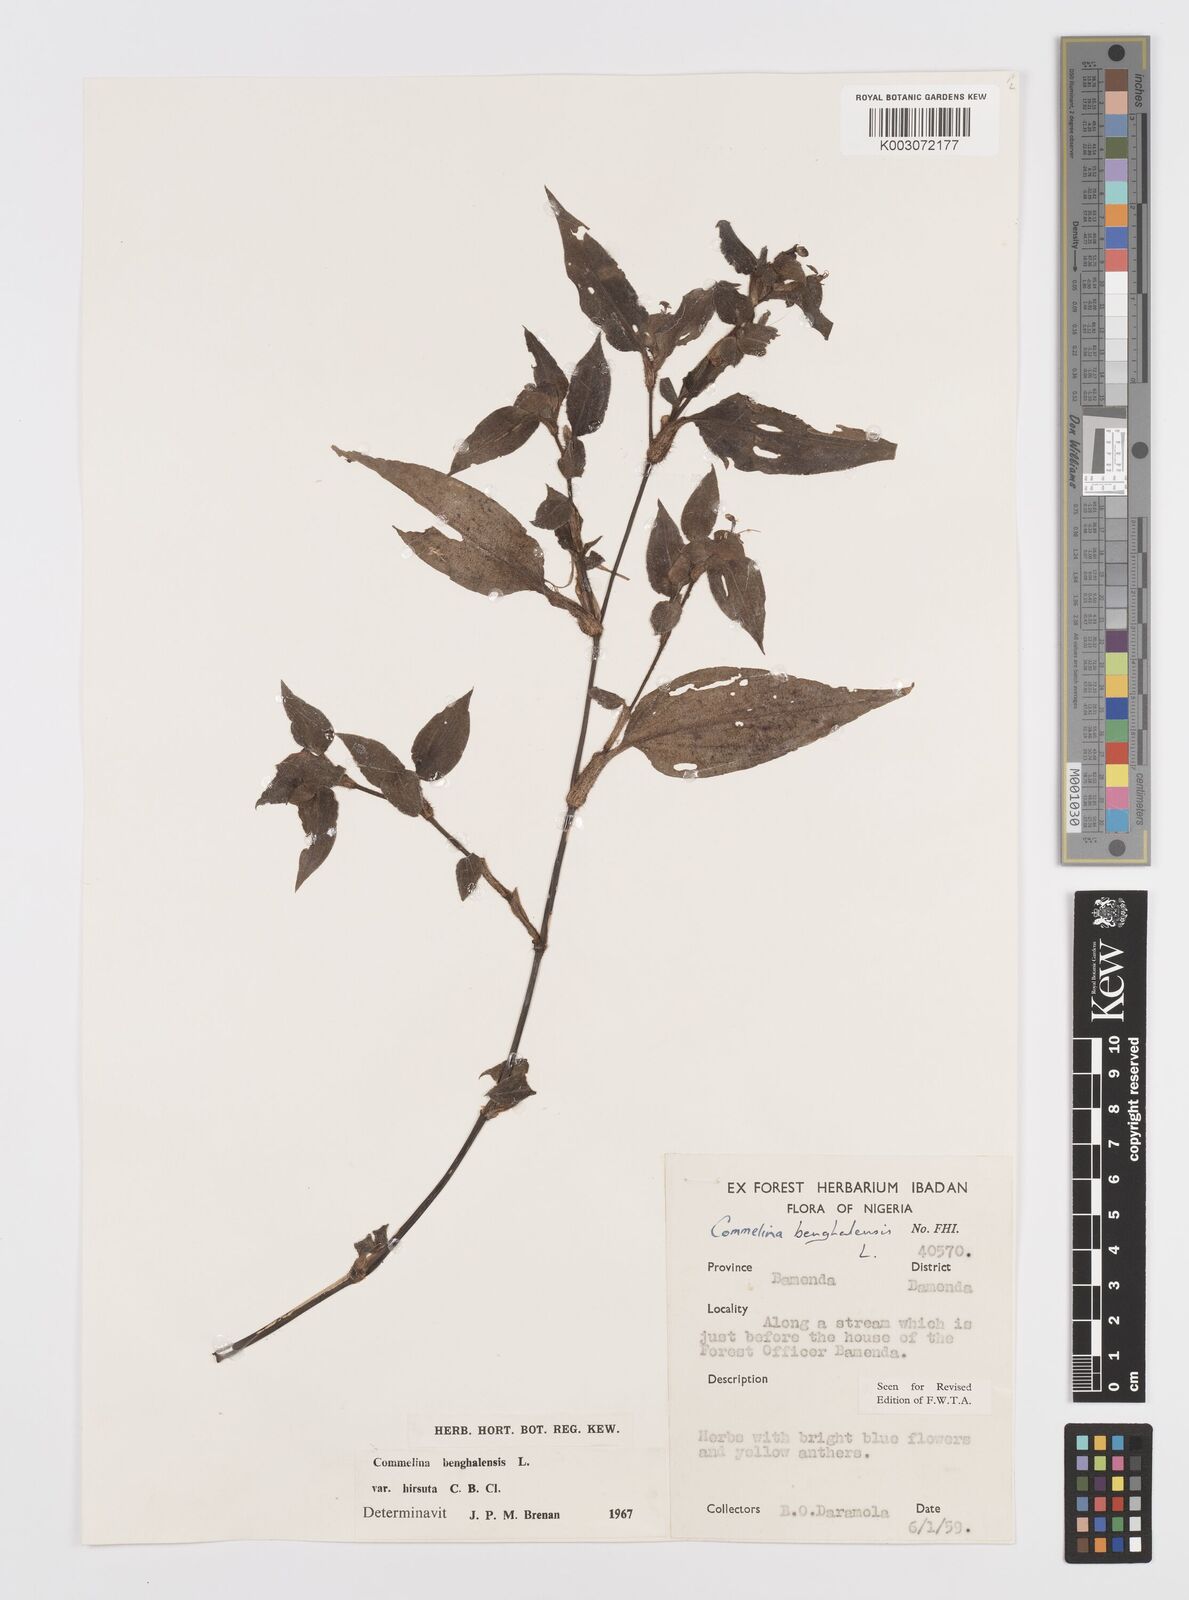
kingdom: Plantae
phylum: Tracheophyta
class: Liliopsida
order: Commelinales
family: Commelinaceae
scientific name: Commelinaceae
